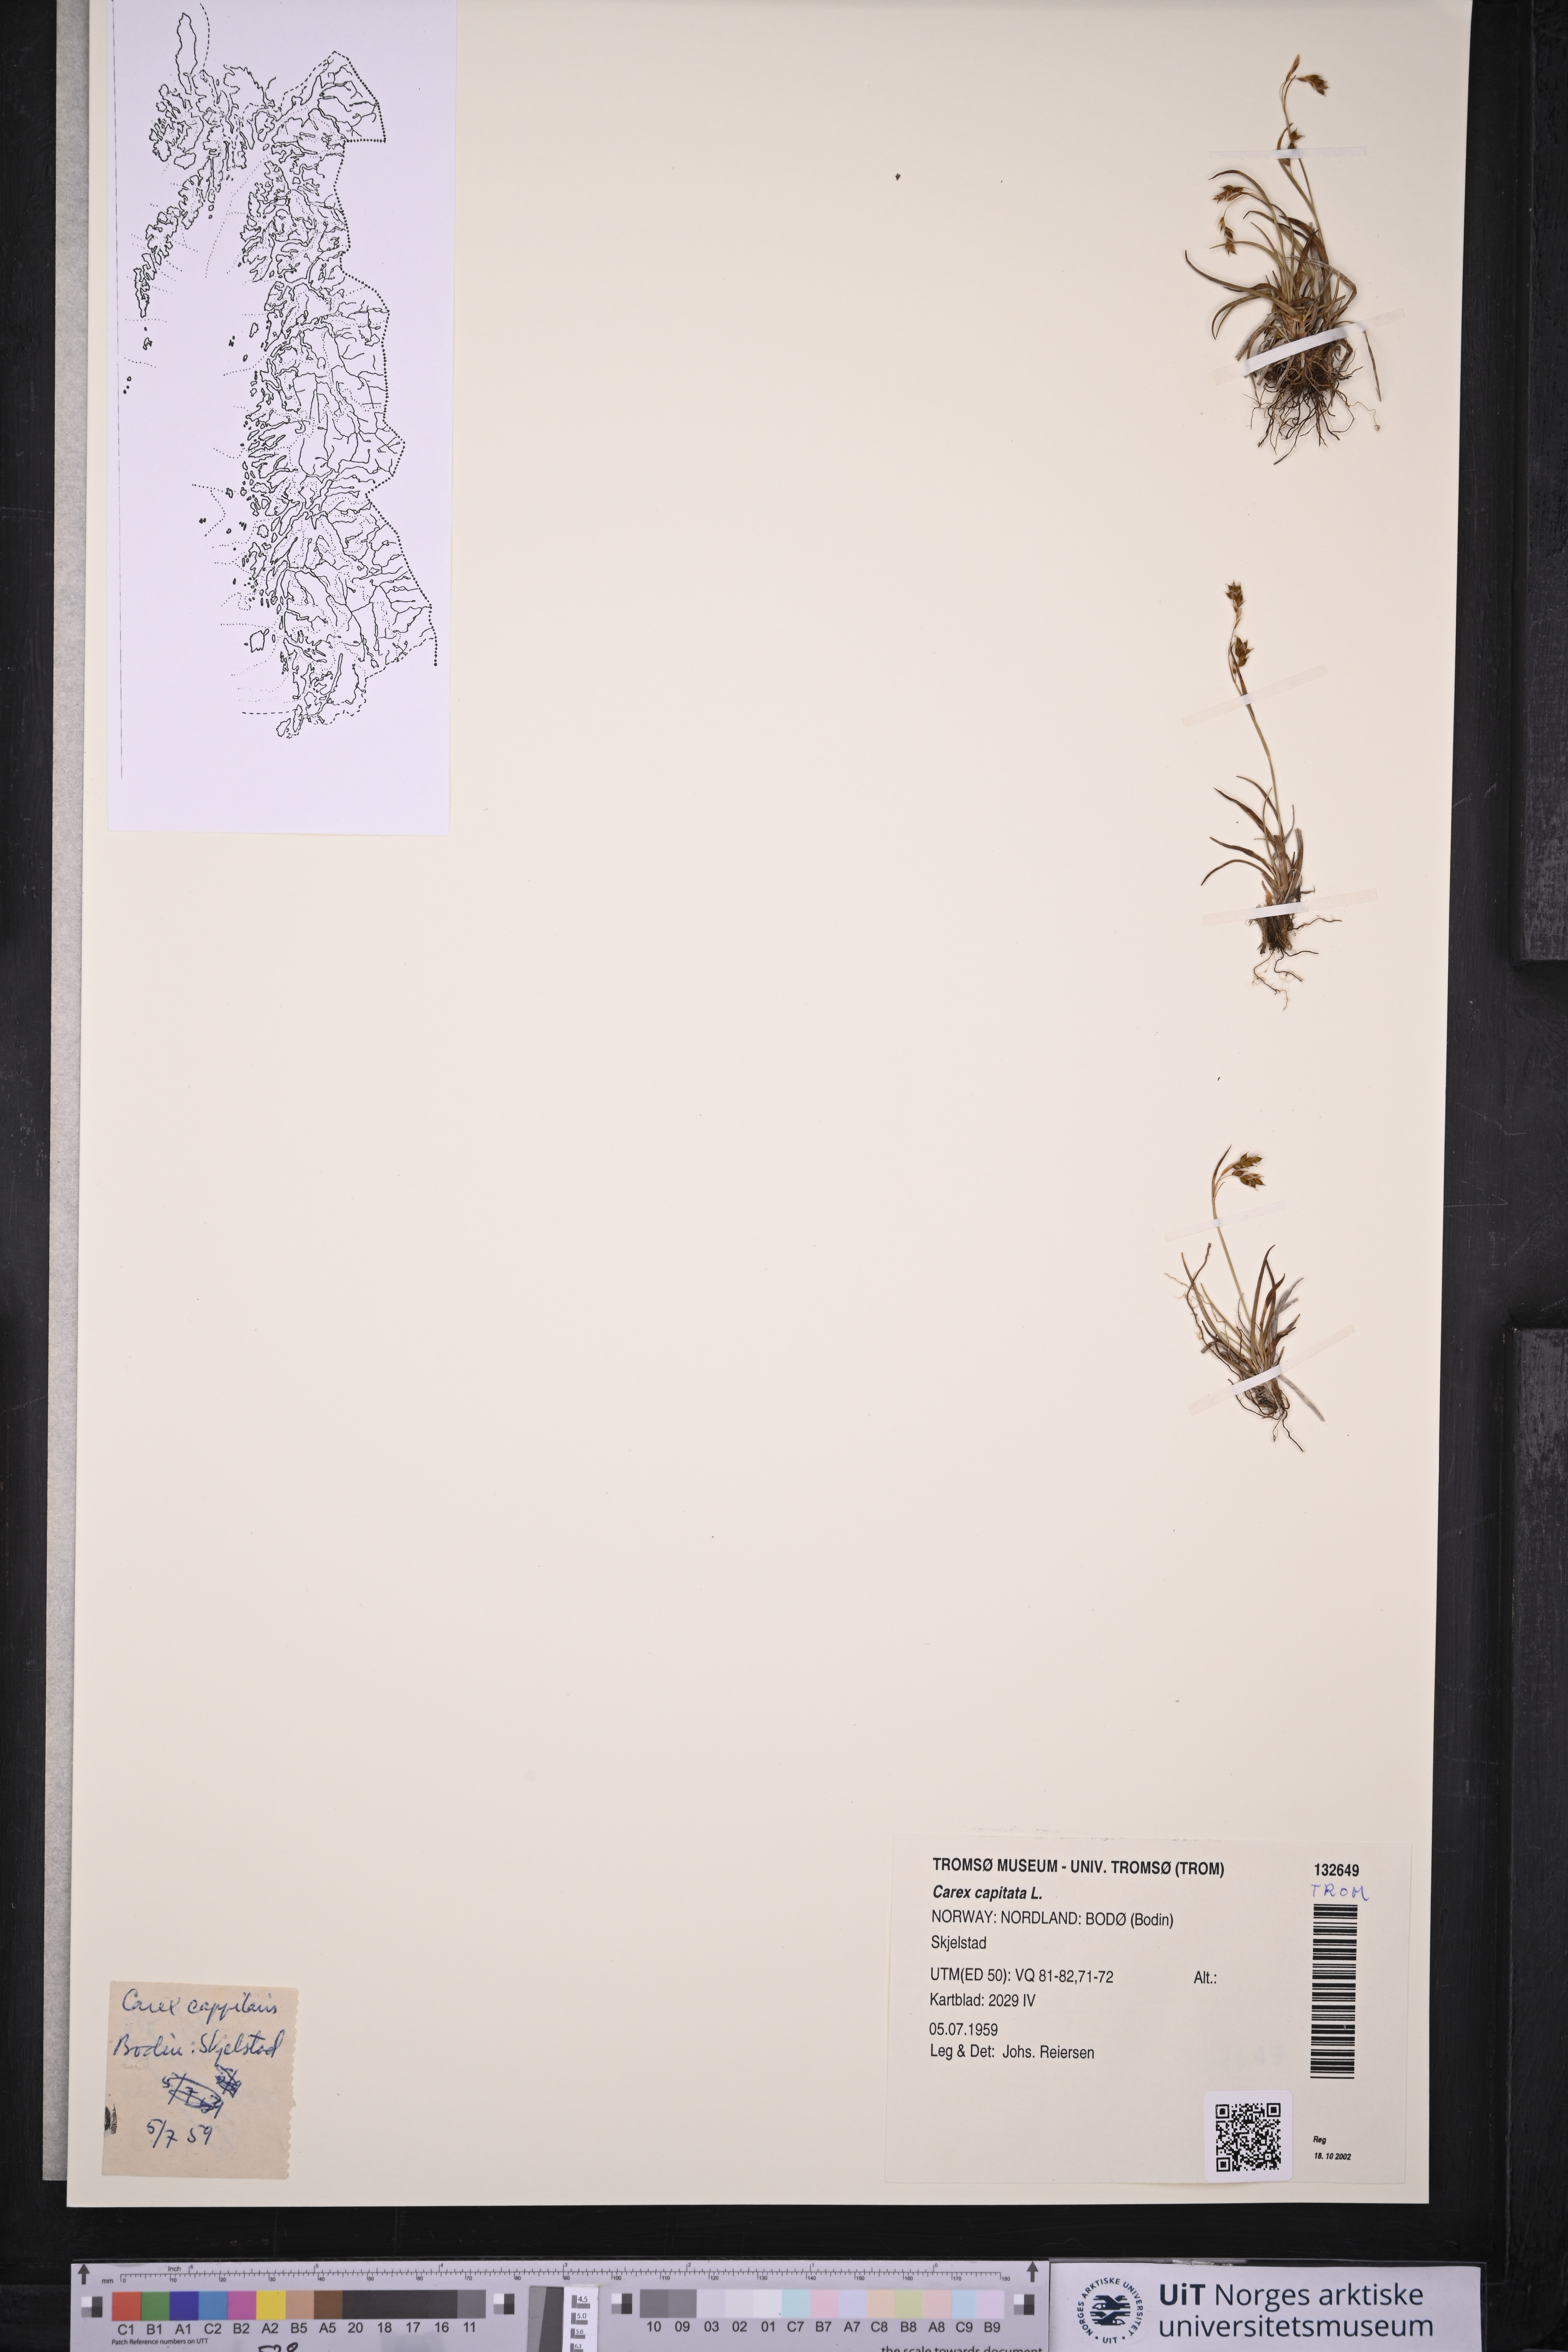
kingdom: Plantae
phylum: Tracheophyta
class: Liliopsida
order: Poales
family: Cyperaceae
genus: Carex
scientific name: Carex capitata
